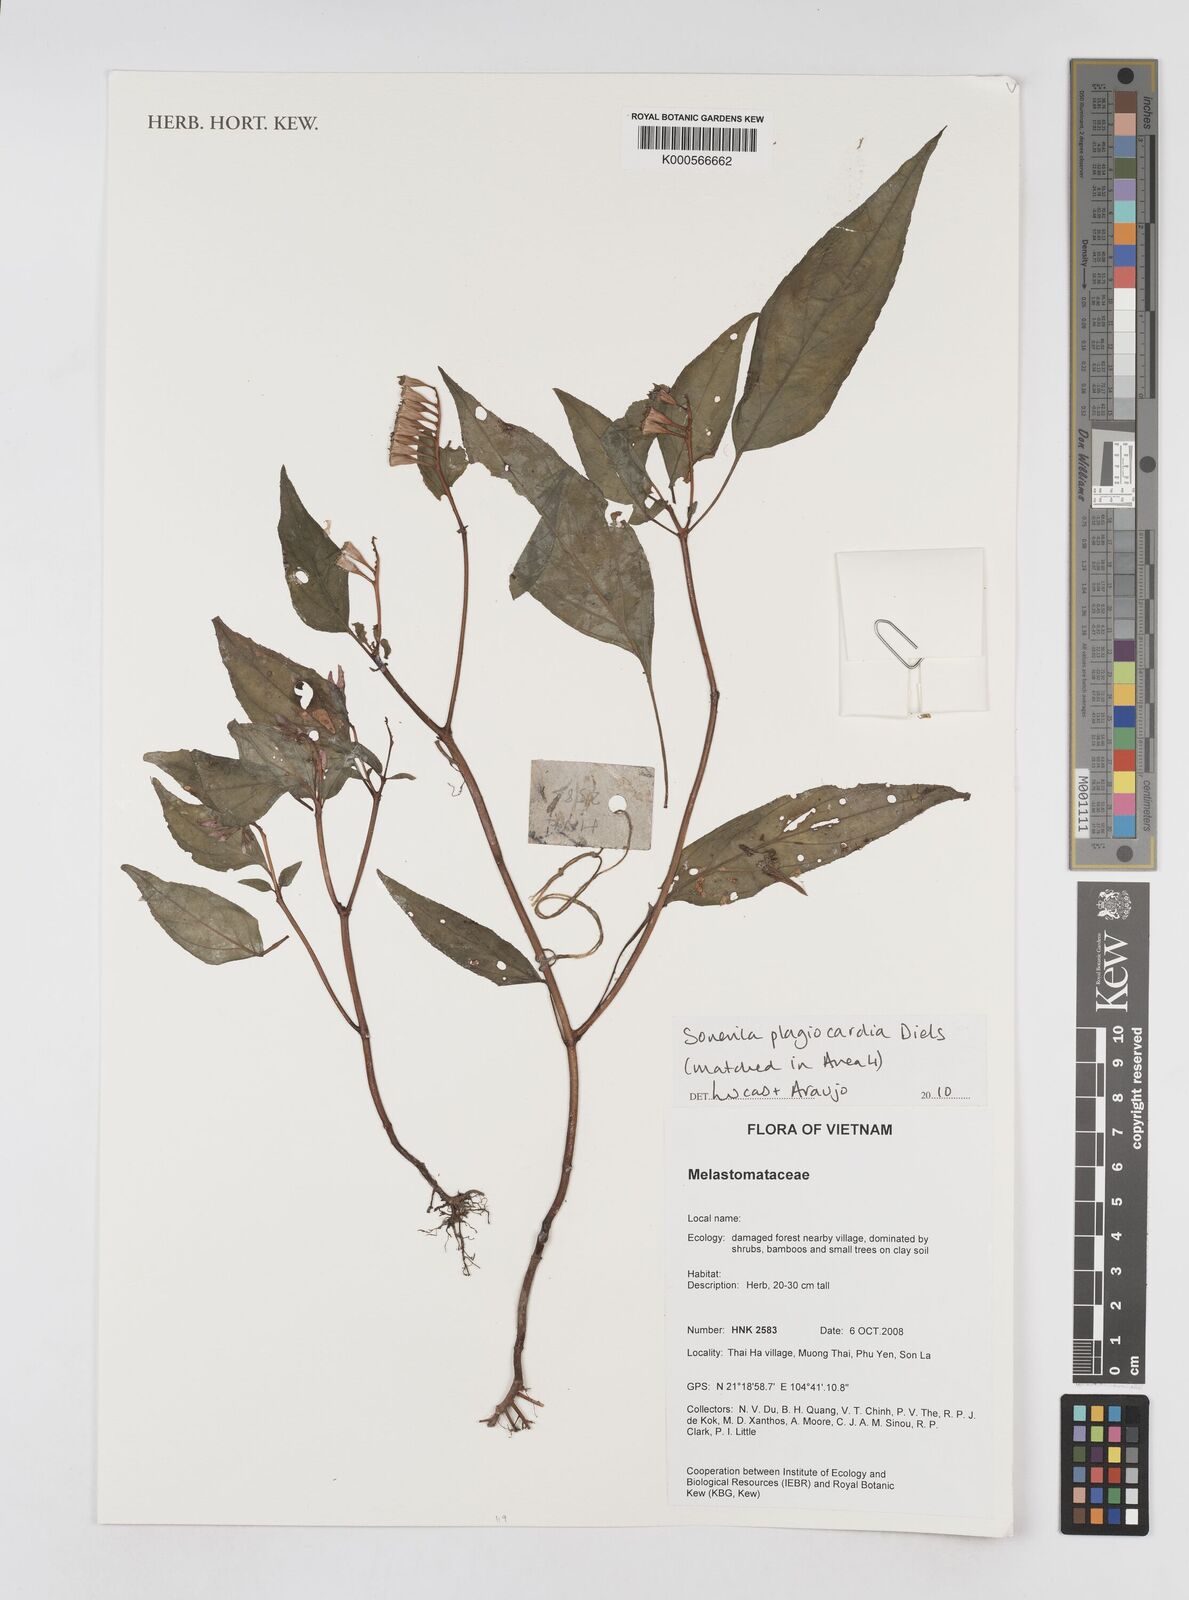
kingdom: Plantae
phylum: Tracheophyta
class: Magnoliopsida
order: Myrtales
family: Melastomataceae
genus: Sonerila
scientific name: Sonerila plagiocardia
